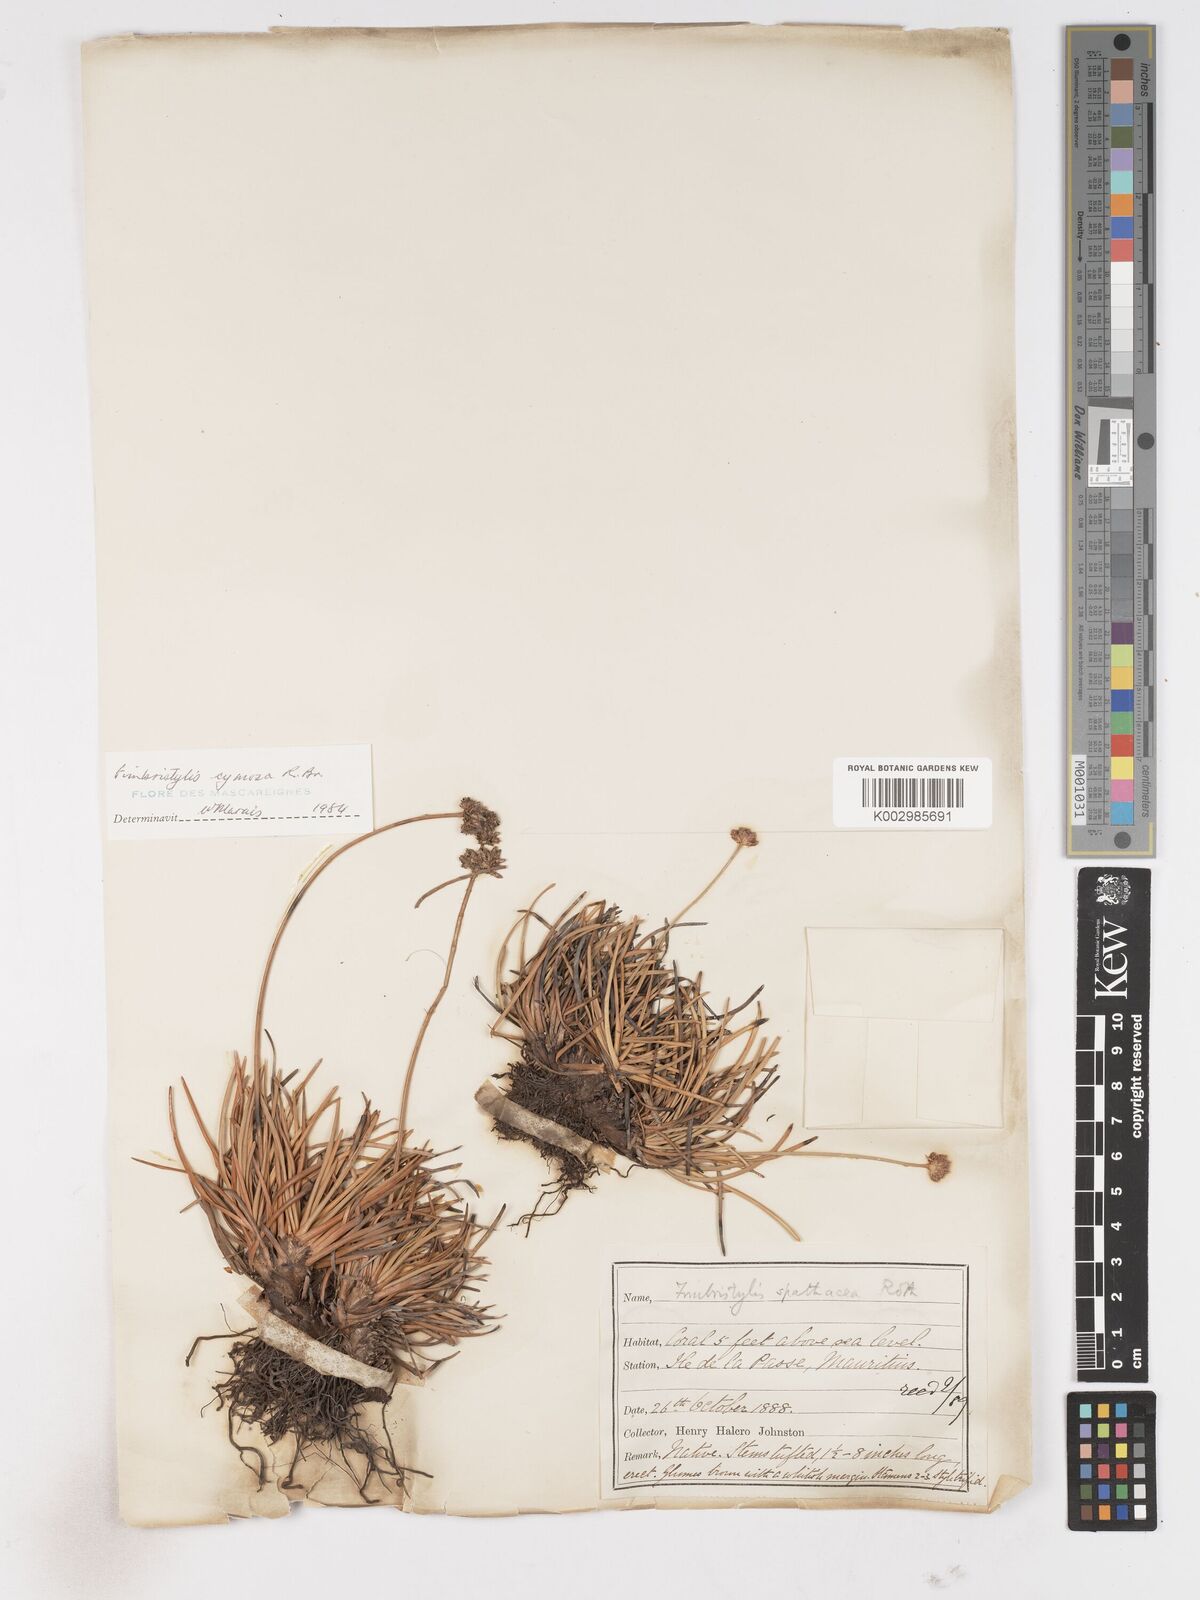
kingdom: Plantae
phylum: Tracheophyta
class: Liliopsida
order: Poales
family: Cyperaceae
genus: Fimbristylis
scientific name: Fimbristylis cymosa
